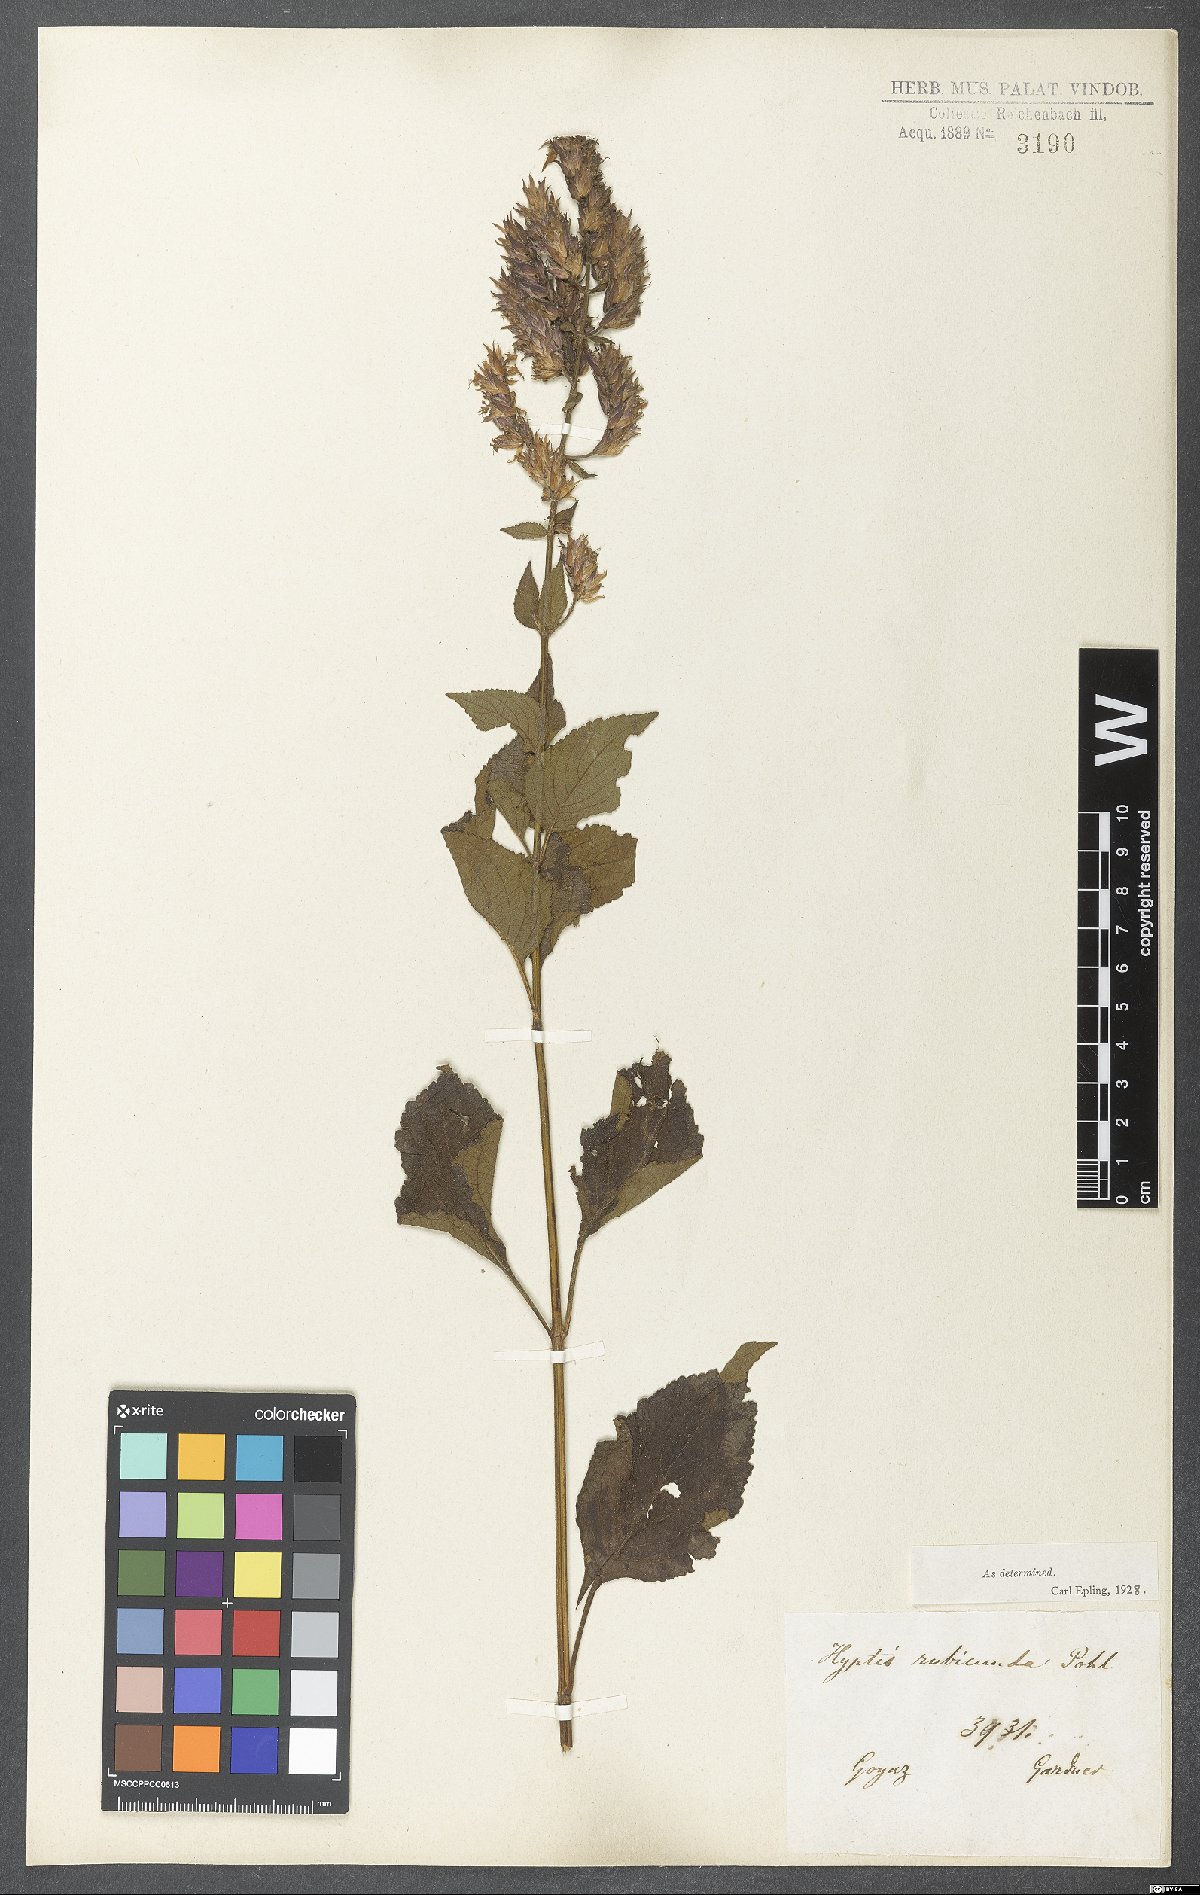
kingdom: Plantae
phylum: Tracheophyta
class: Magnoliopsida
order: Lamiales
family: Lamiaceae
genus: Cantinoa
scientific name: Cantinoa rubicunda
